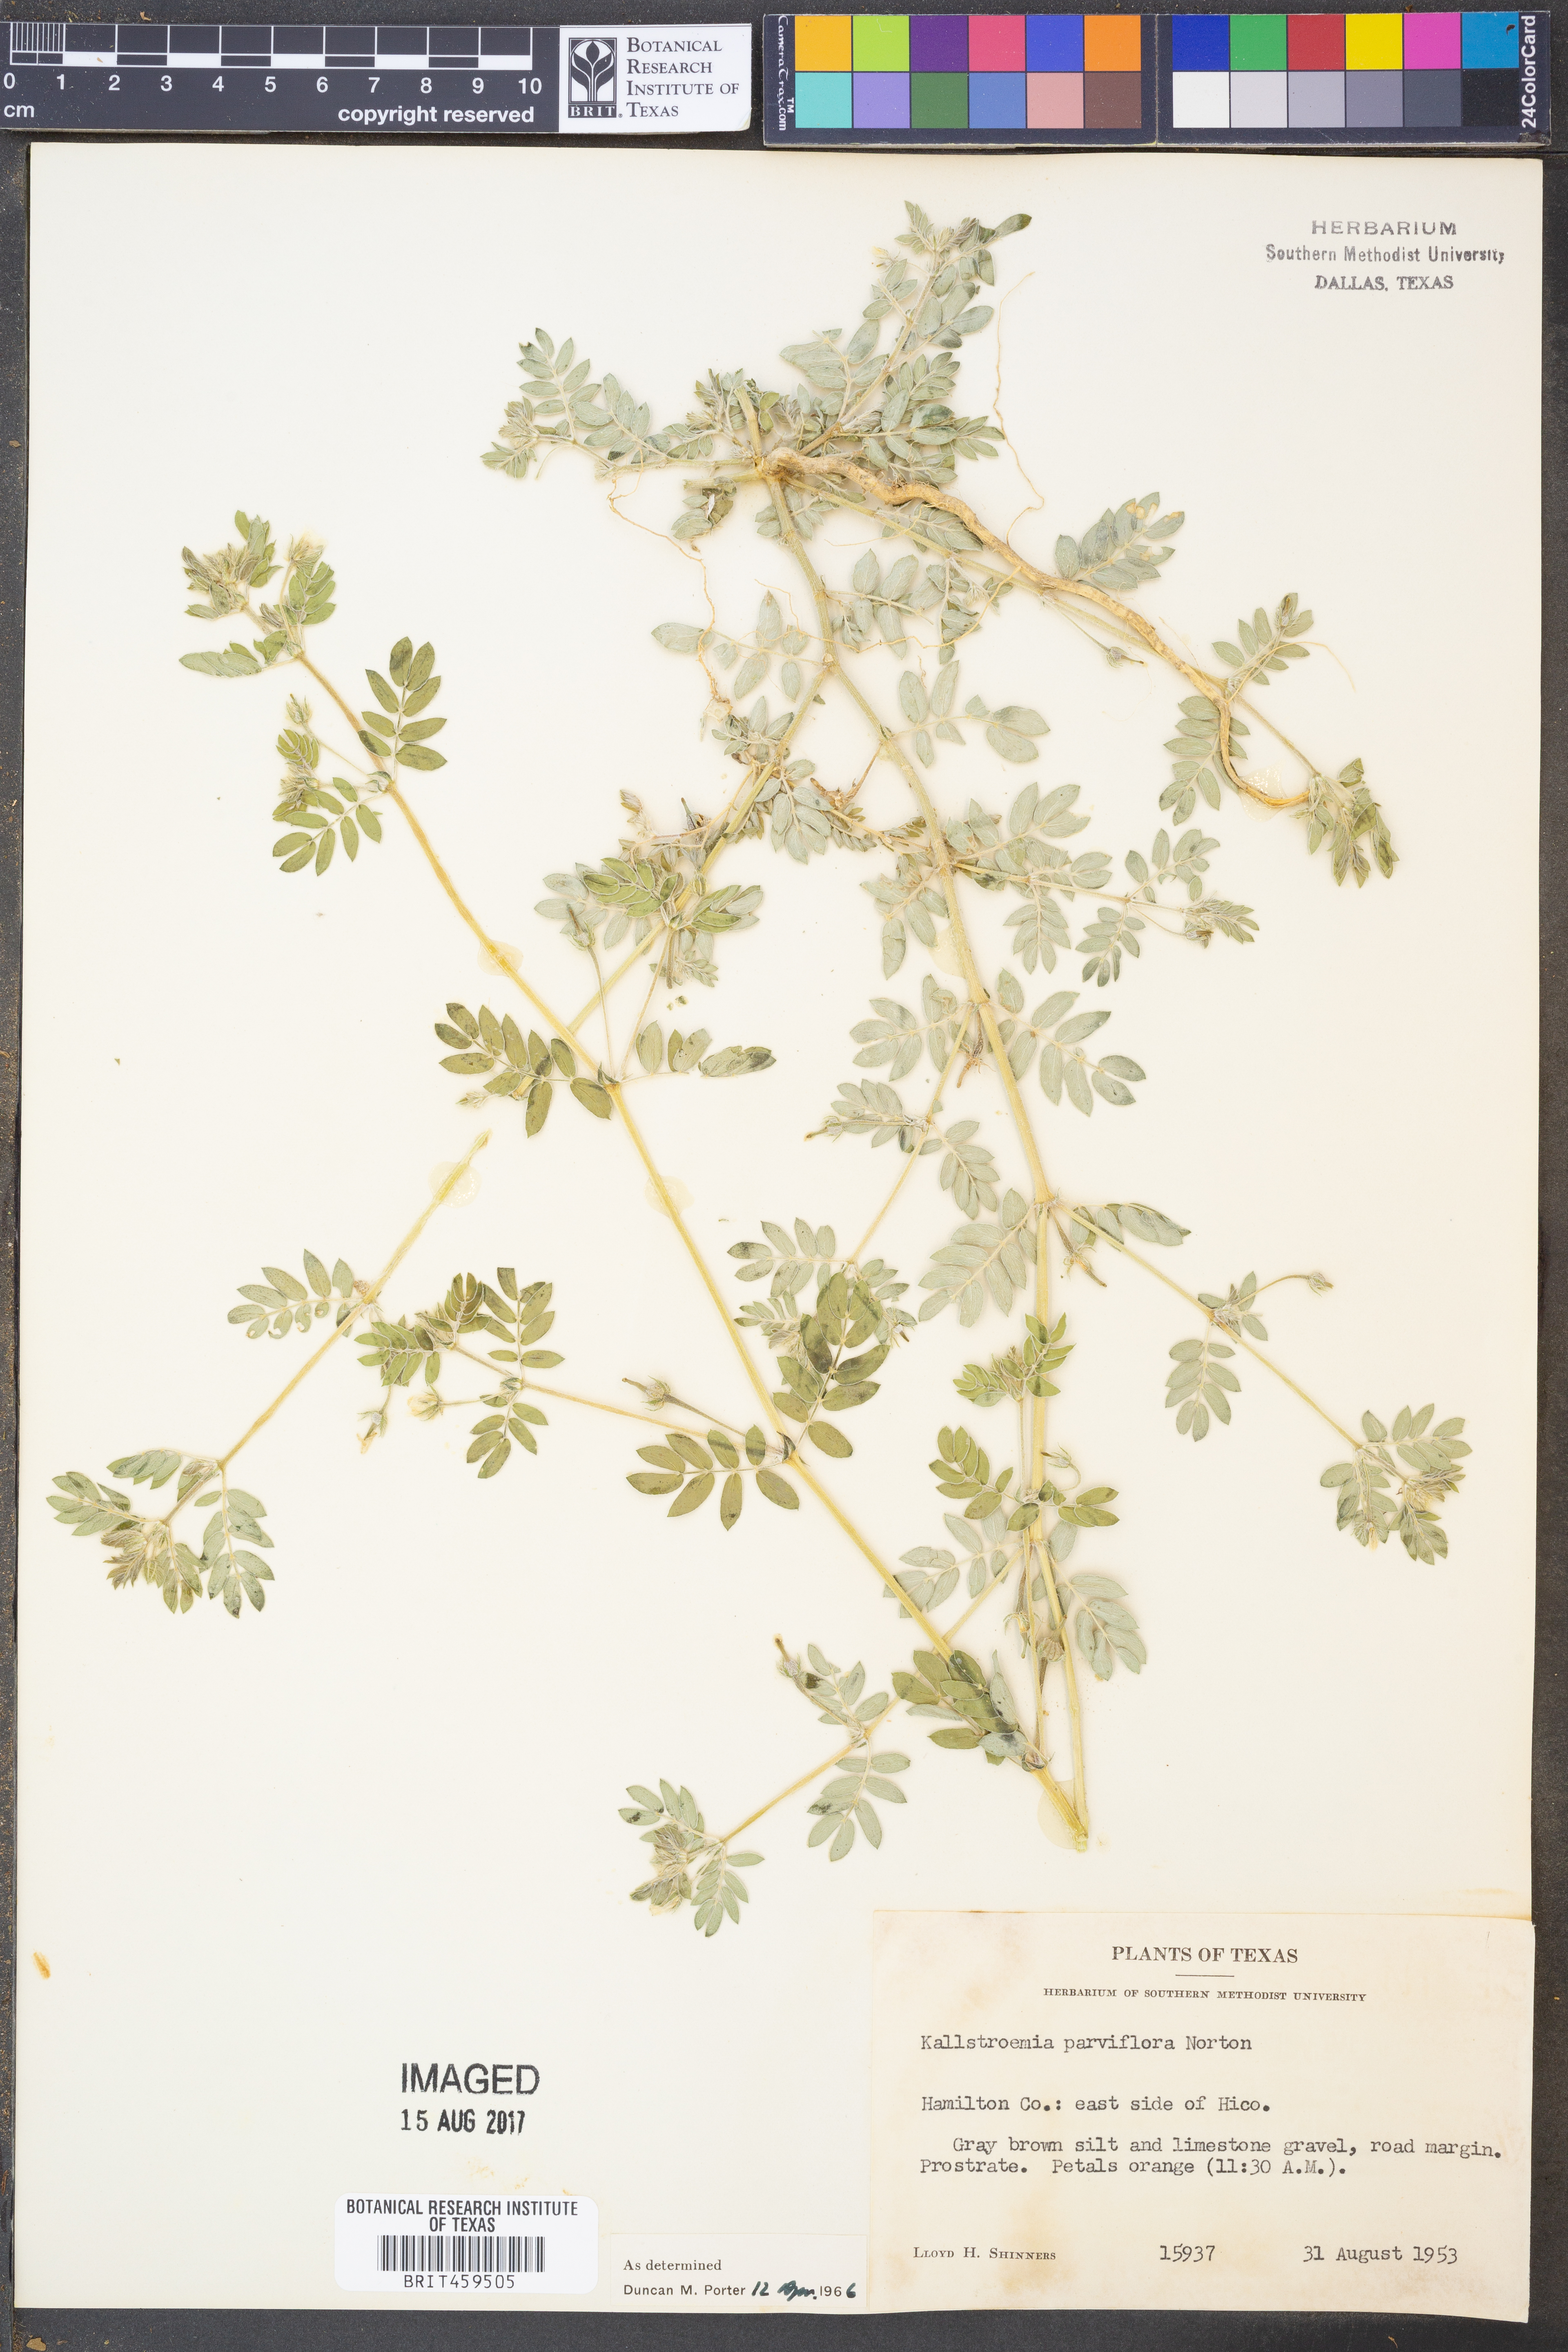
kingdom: Plantae
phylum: Tracheophyta
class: Magnoliopsida
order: Zygophyllales
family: Zygophyllaceae
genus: Kallstroemia
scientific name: Kallstroemia parviflora
